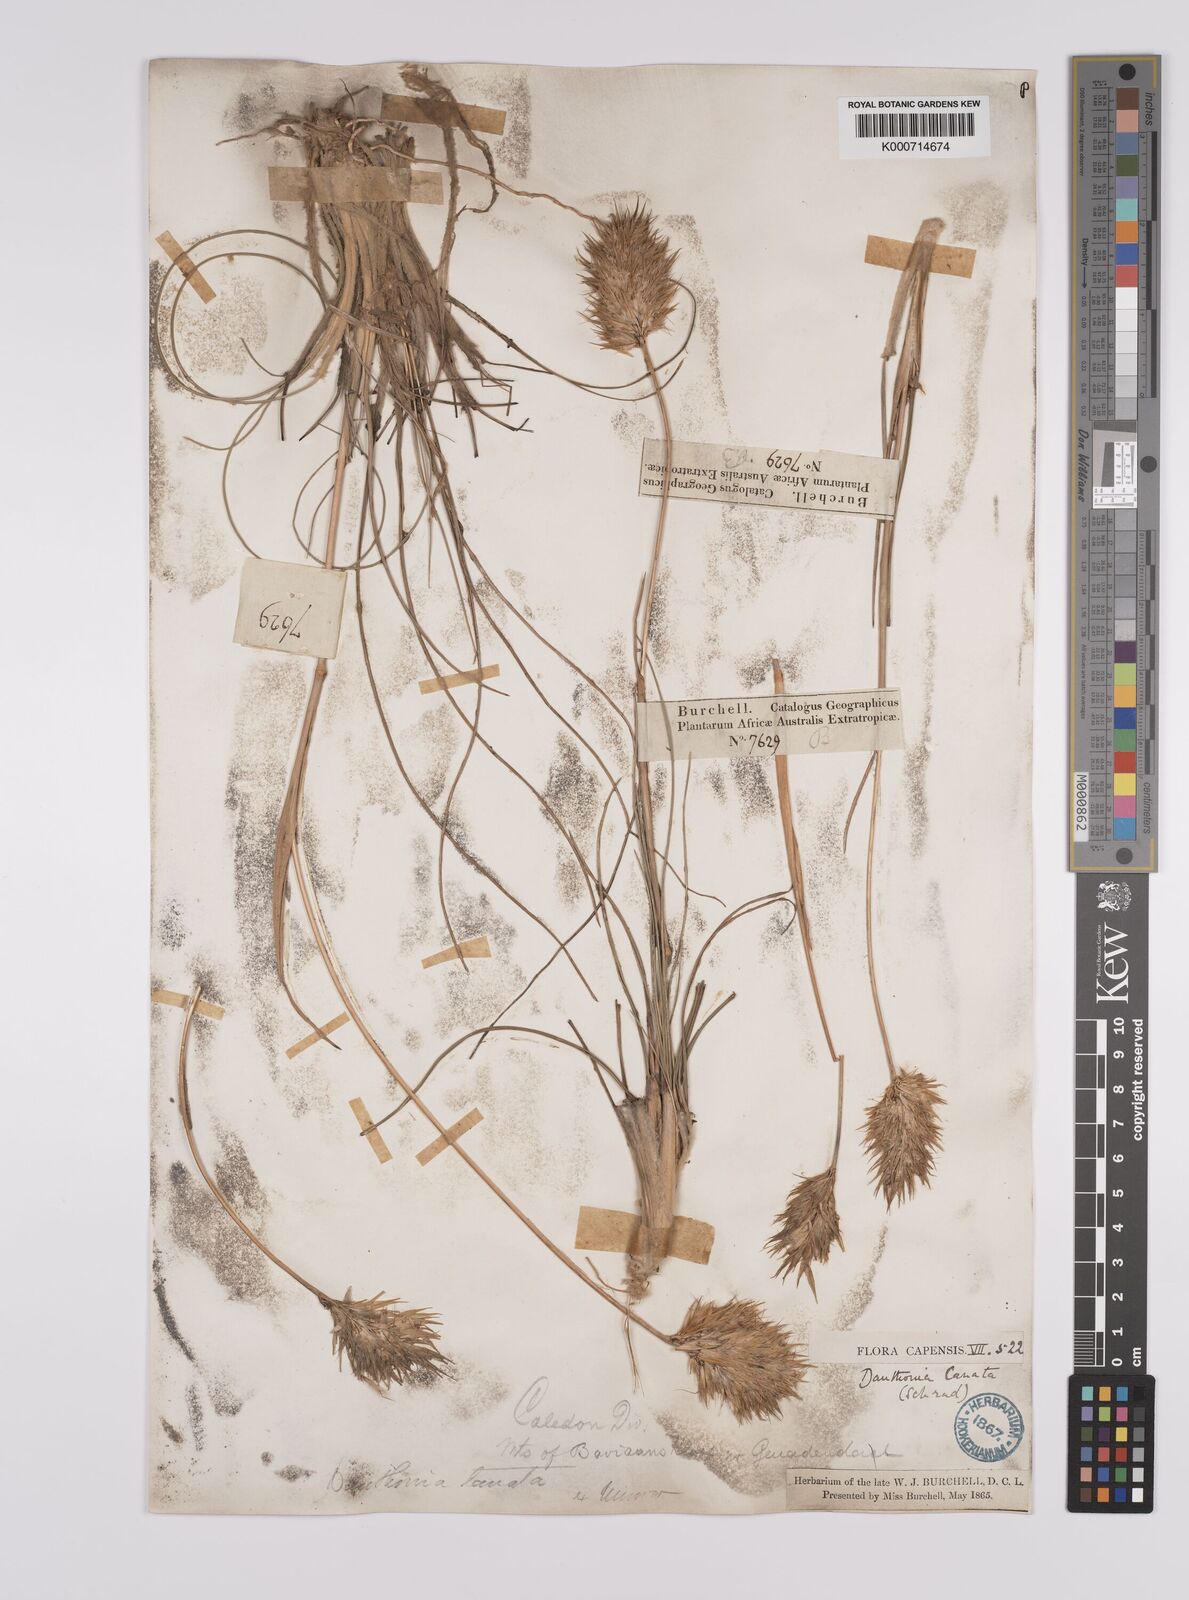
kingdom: Plantae
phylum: Tracheophyta
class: Liliopsida
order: Poales
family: Poaceae
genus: Rytidosperma
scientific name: Rytidosperma
